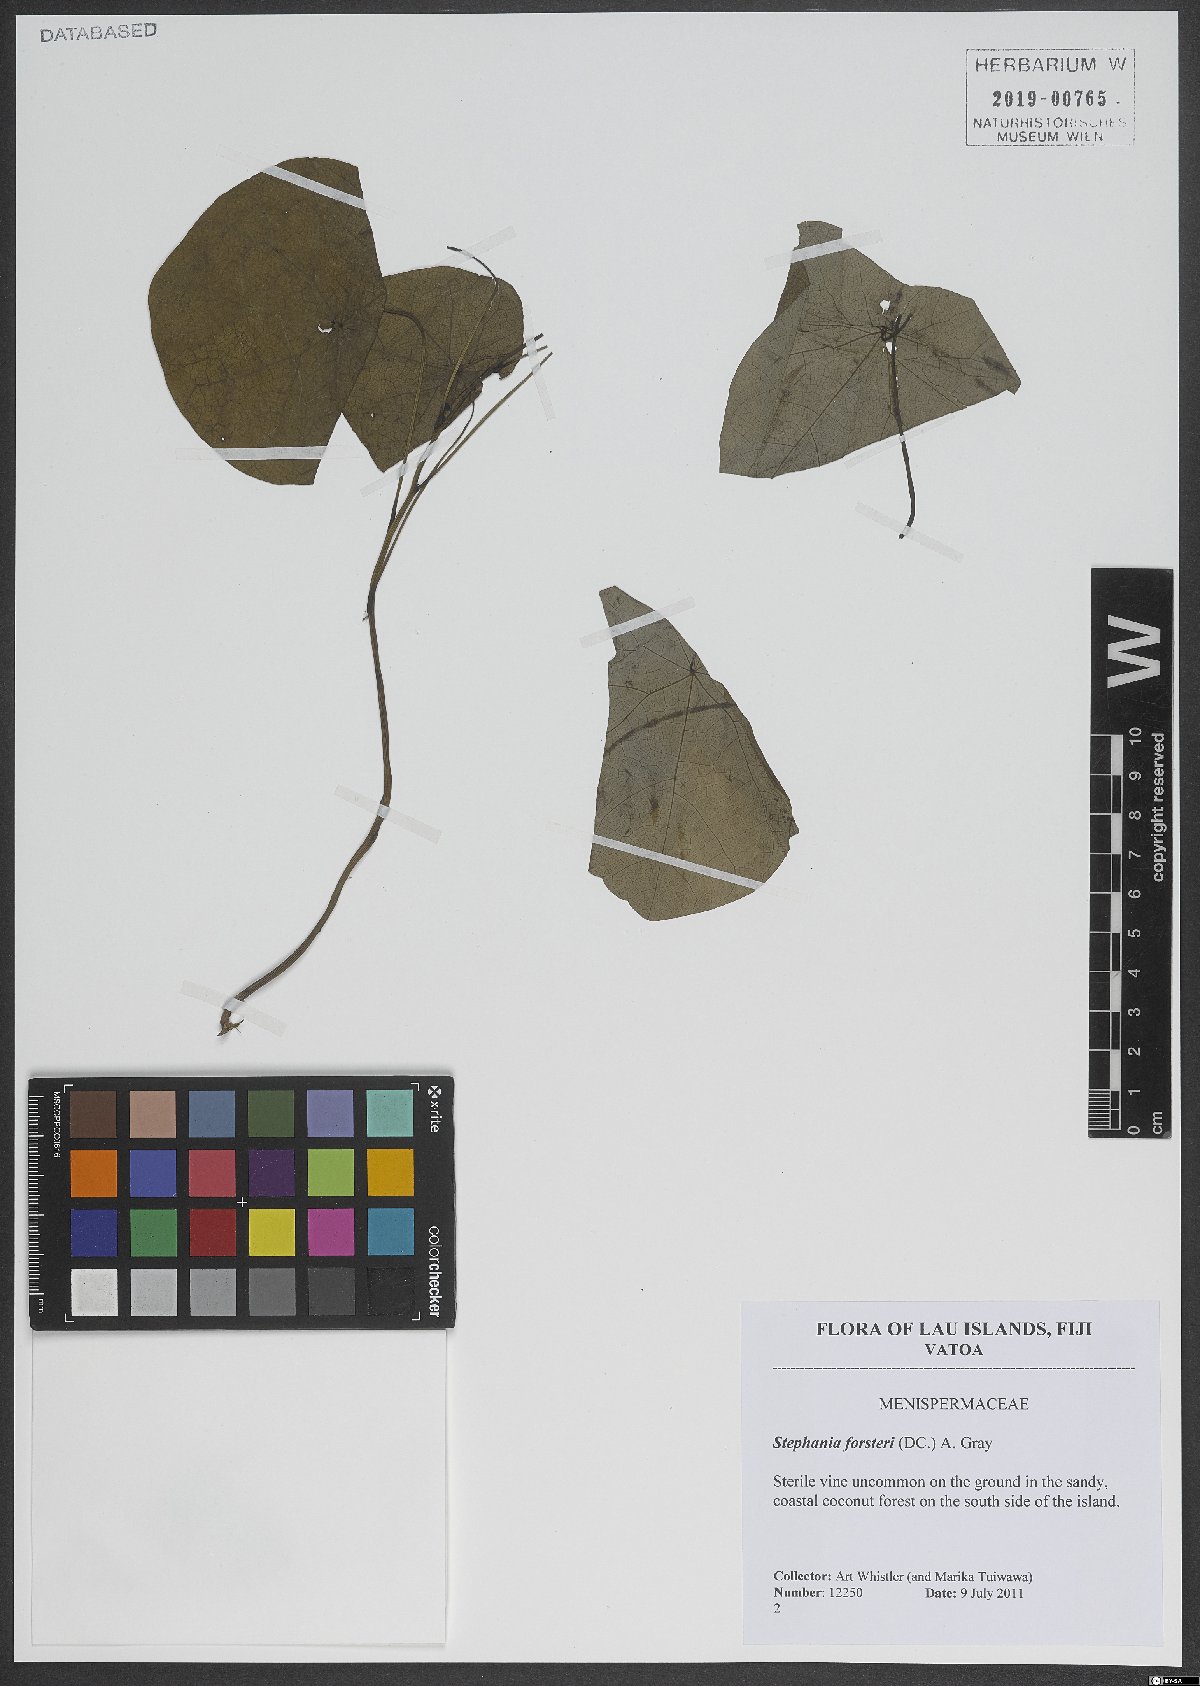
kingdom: Plantae
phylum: Tracheophyta
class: Magnoliopsida
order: Ranunculales
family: Menispermaceae
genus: Stephania
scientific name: Stephania japonica
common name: Snake vine
